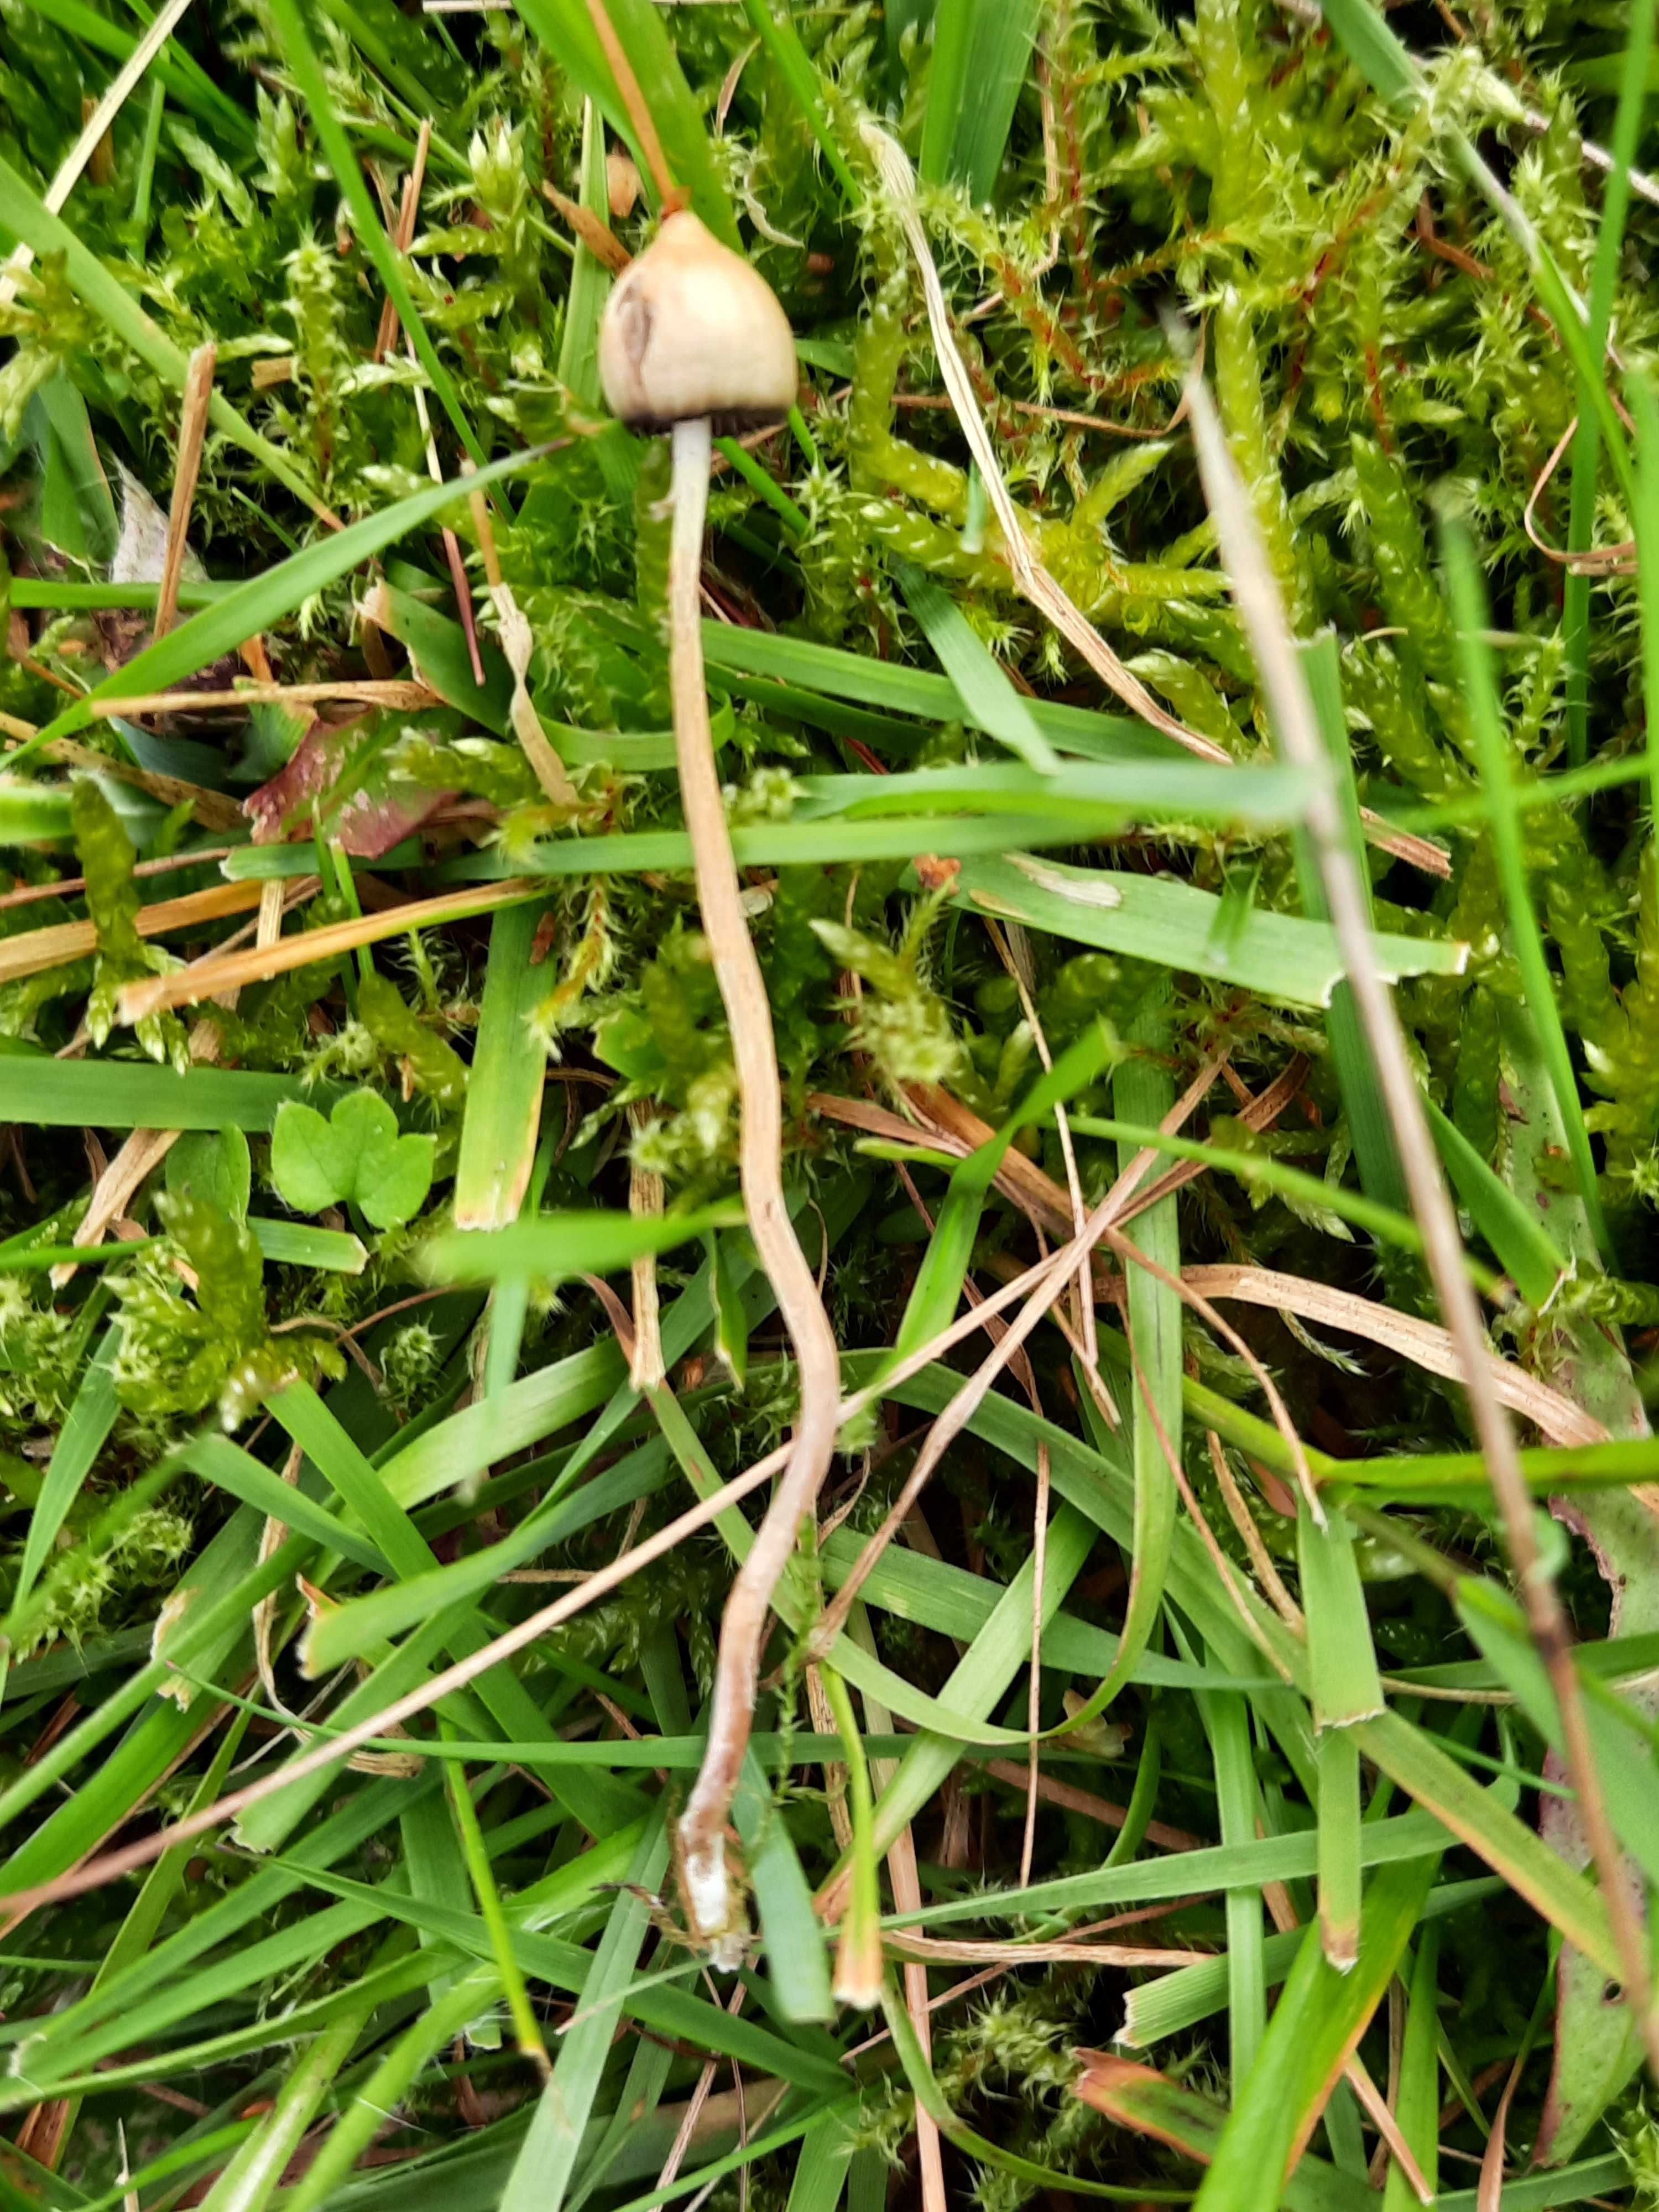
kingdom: Fungi
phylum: Basidiomycota
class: Agaricomycetes
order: Agaricales
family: Hymenogastraceae
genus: Psilocybe
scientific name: Psilocybe semilanceata
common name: spids nøgenhat
